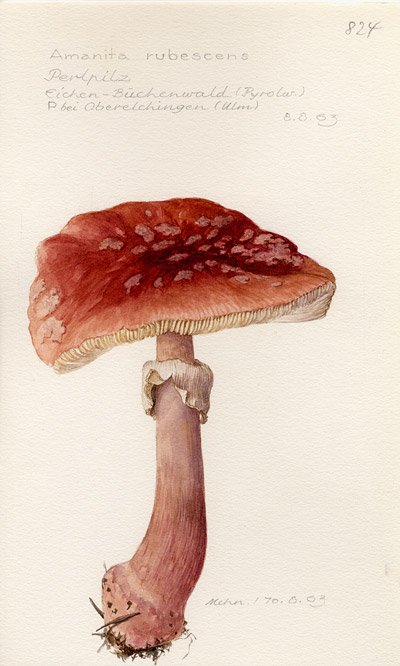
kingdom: Fungi
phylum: Basidiomycota
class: Agaricomycetes
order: Agaricales
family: Amanitaceae
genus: Amanita
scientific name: Amanita rubescens
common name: Blusher
